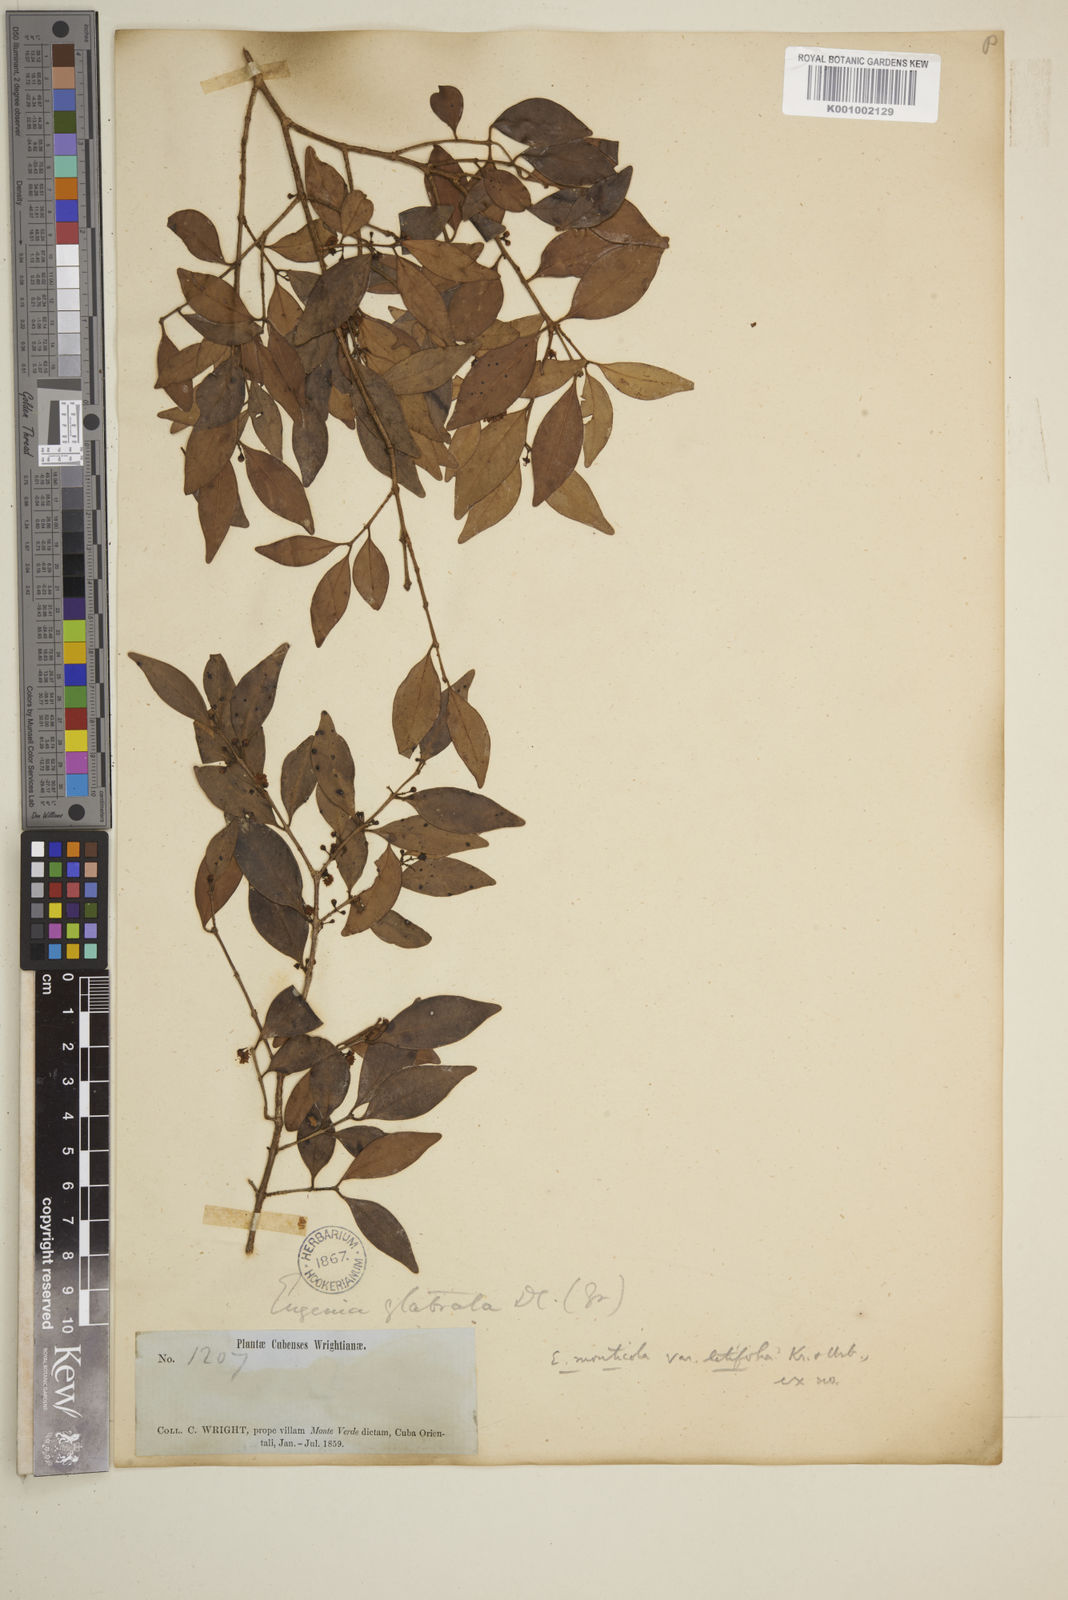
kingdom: Plantae
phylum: Tracheophyta
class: Magnoliopsida
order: Myrtales
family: Myrtaceae
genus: Eugenia
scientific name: Eugenia monticola
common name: Birds berry
